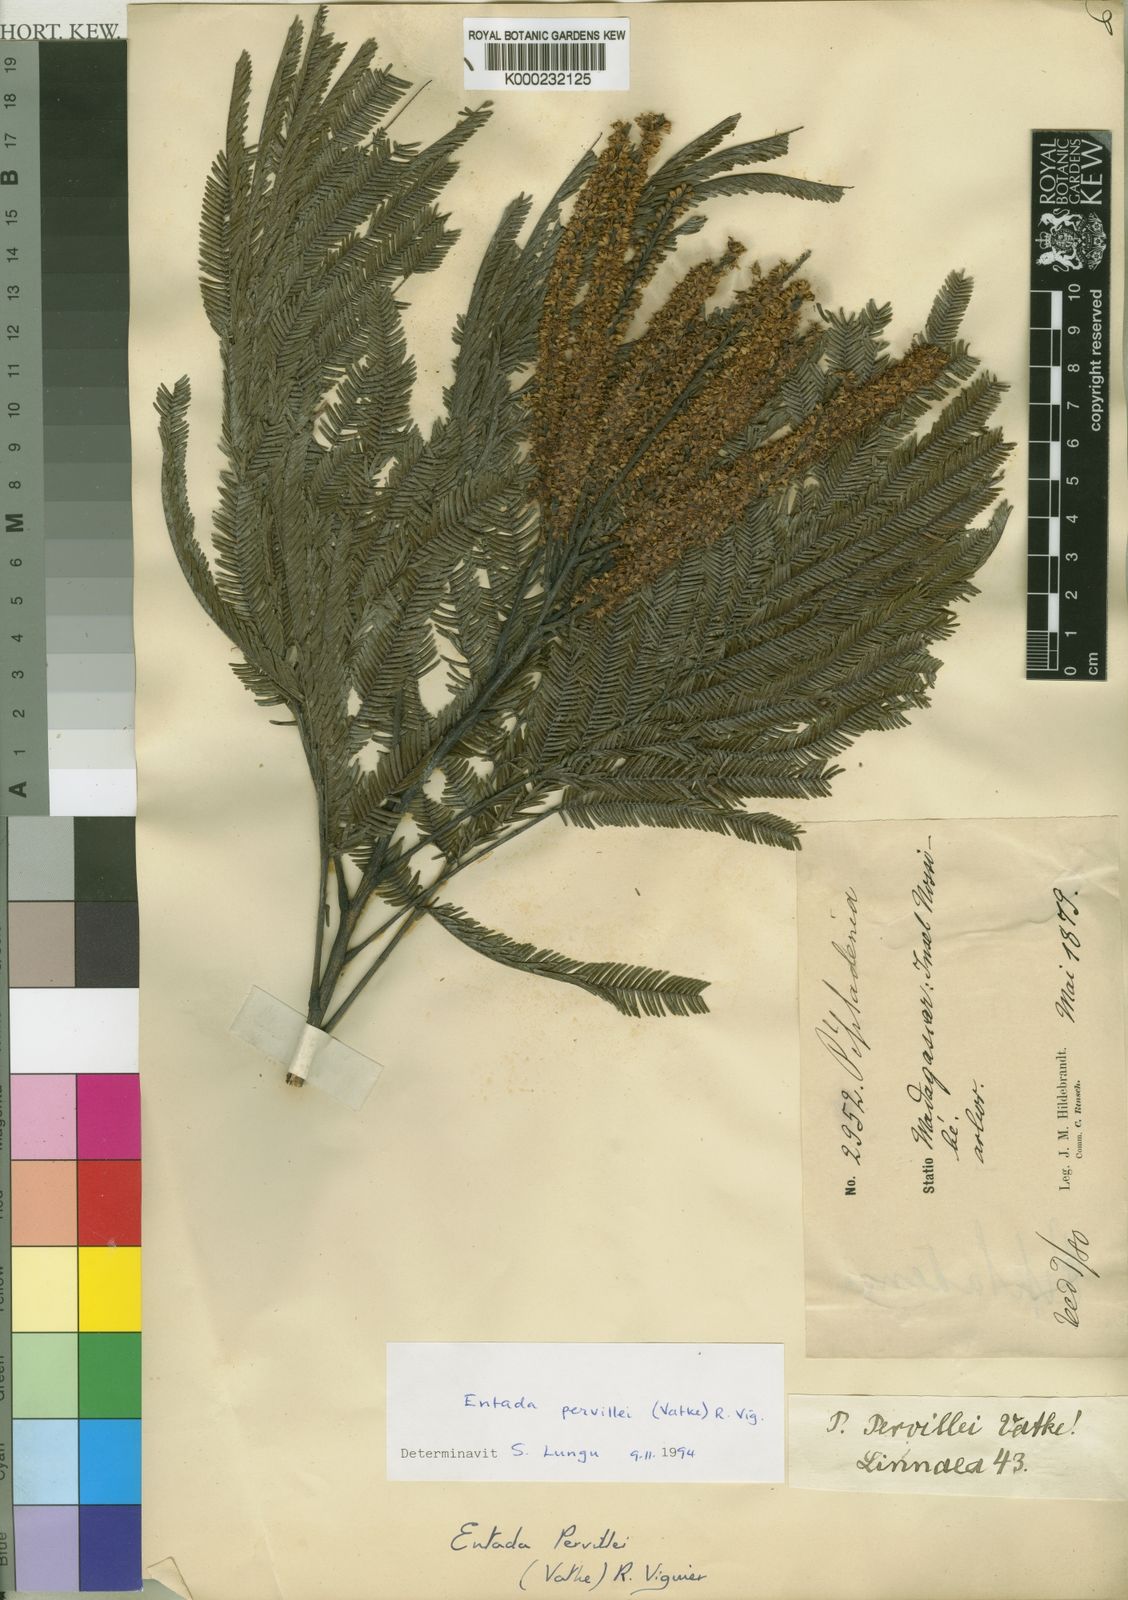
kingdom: Plantae
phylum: Tracheophyta
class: Magnoliopsida
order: Fabales
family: Fabaceae
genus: Entada
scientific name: Entada
